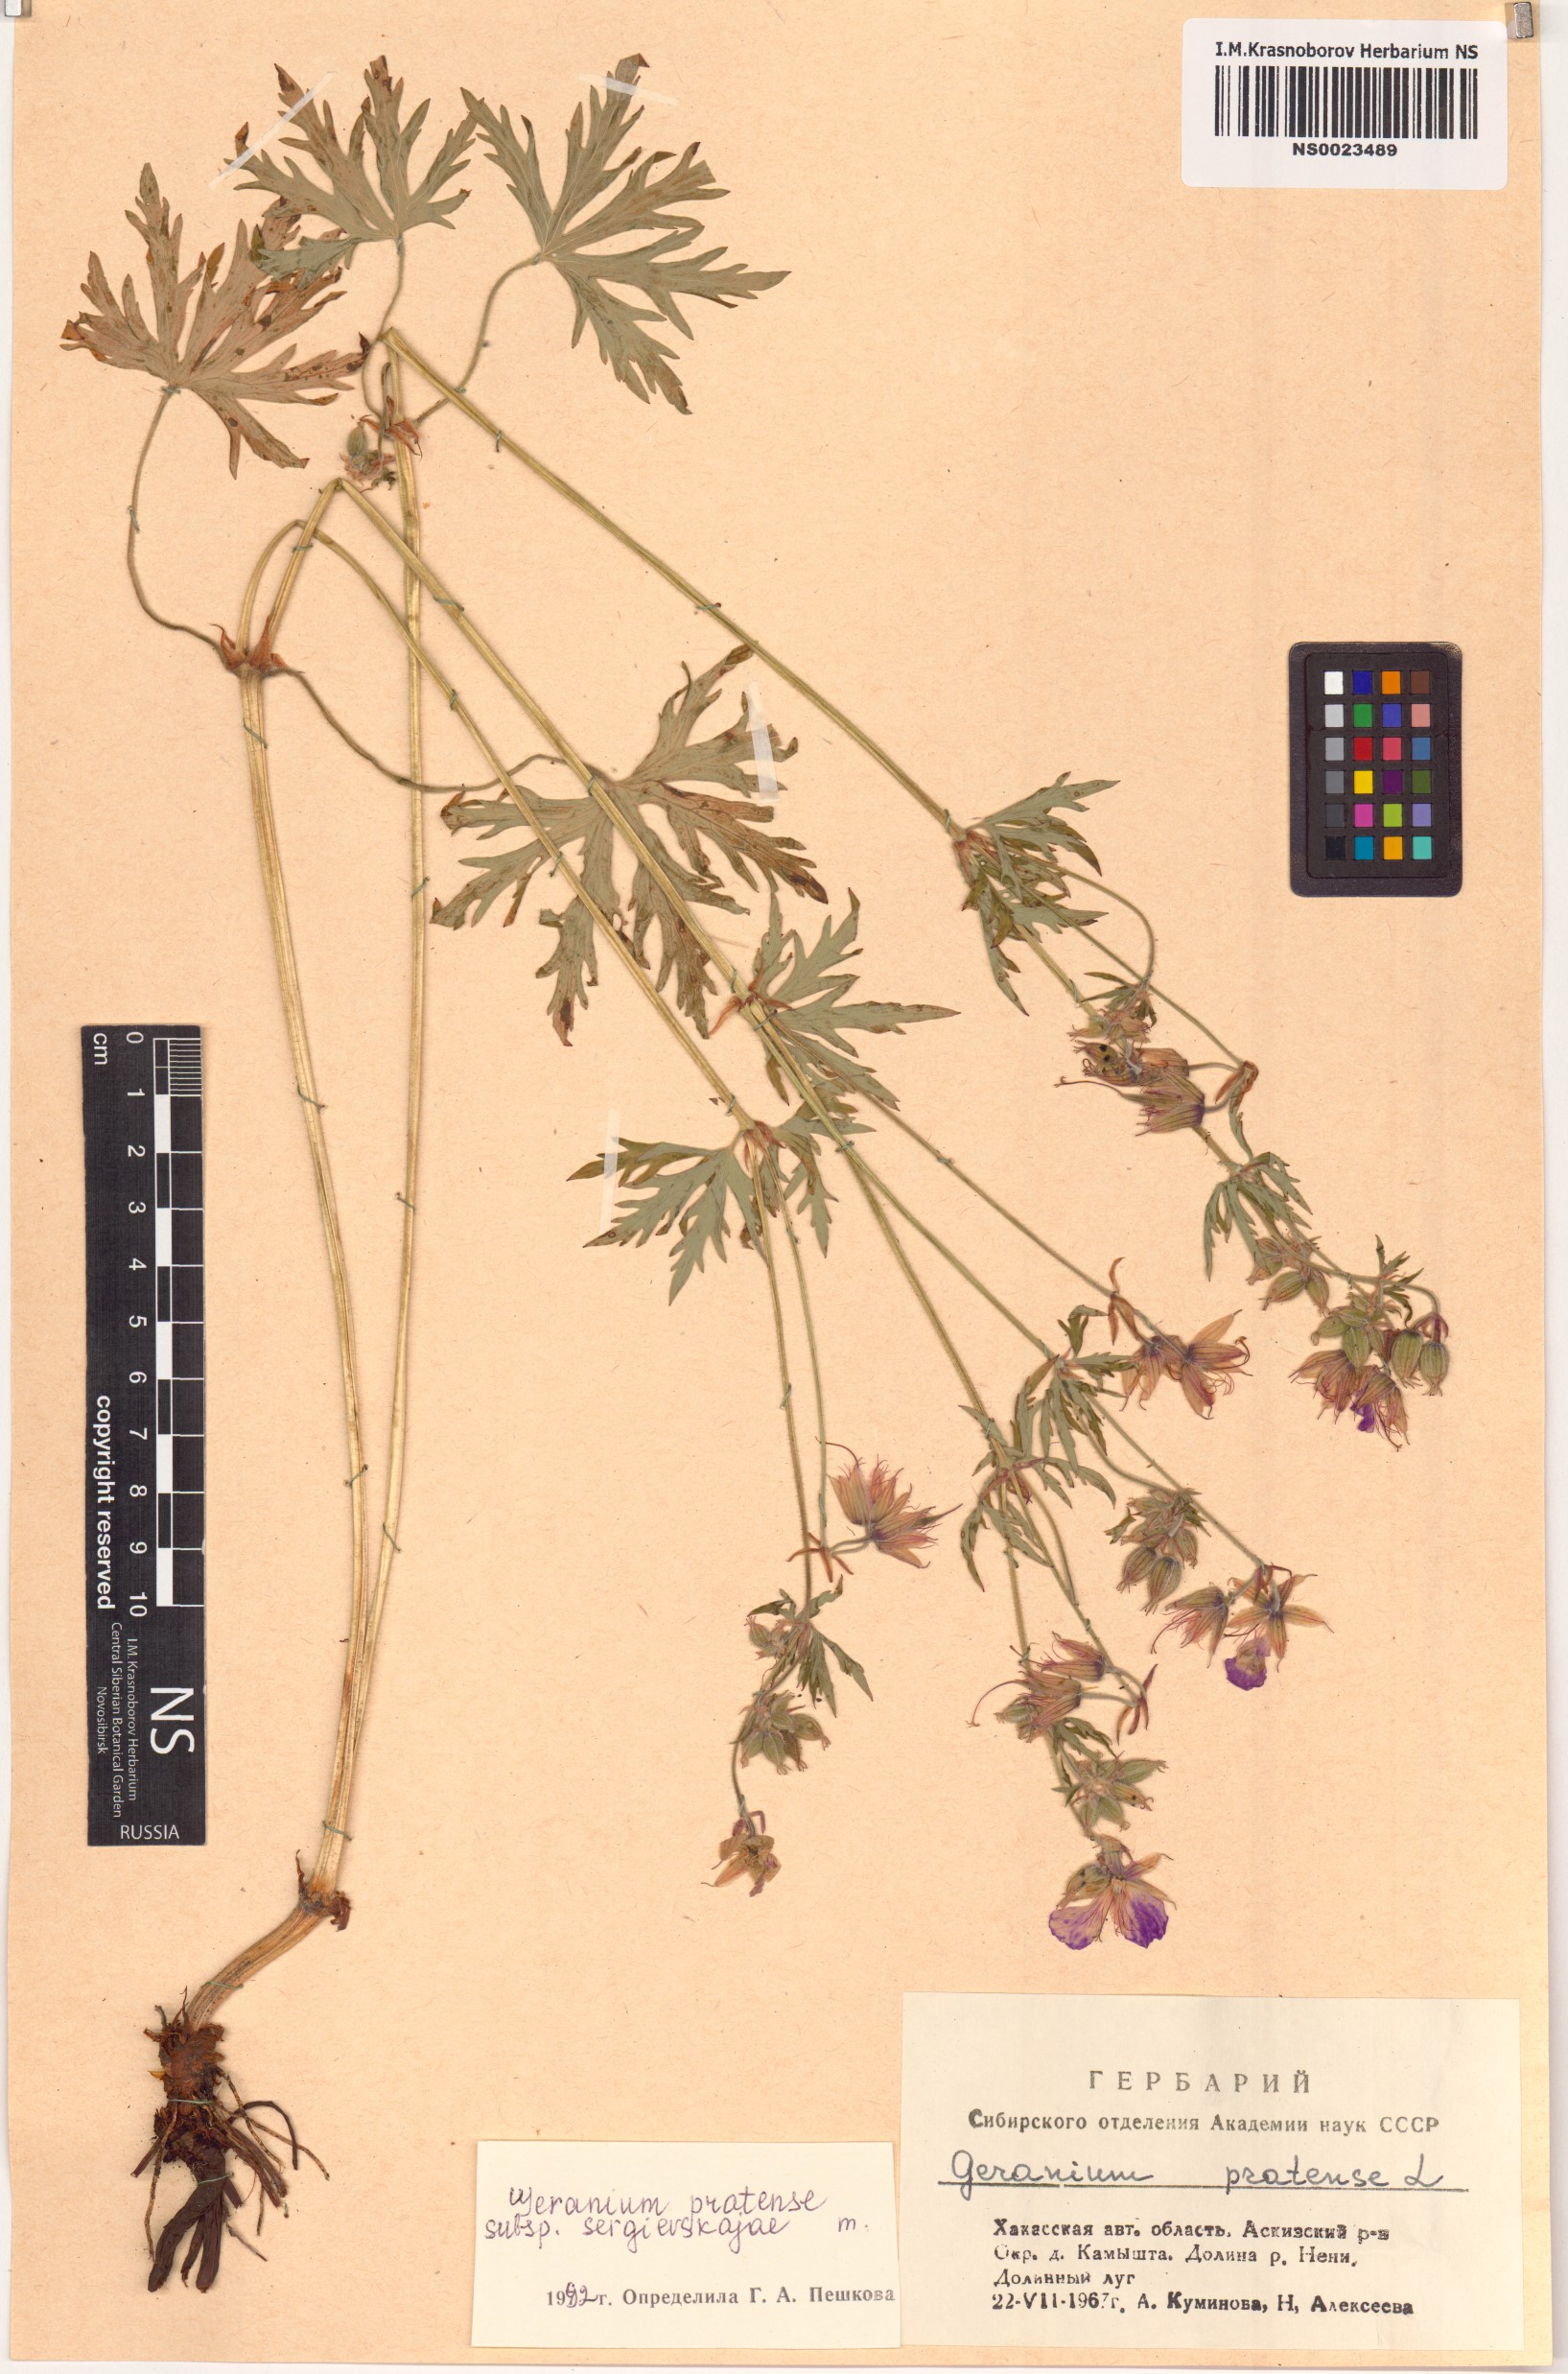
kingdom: Plantae
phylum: Tracheophyta
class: Magnoliopsida
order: Geraniales
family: Geraniaceae
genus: Geranium
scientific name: Geranium pratense
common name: Meadow crane's-bill
